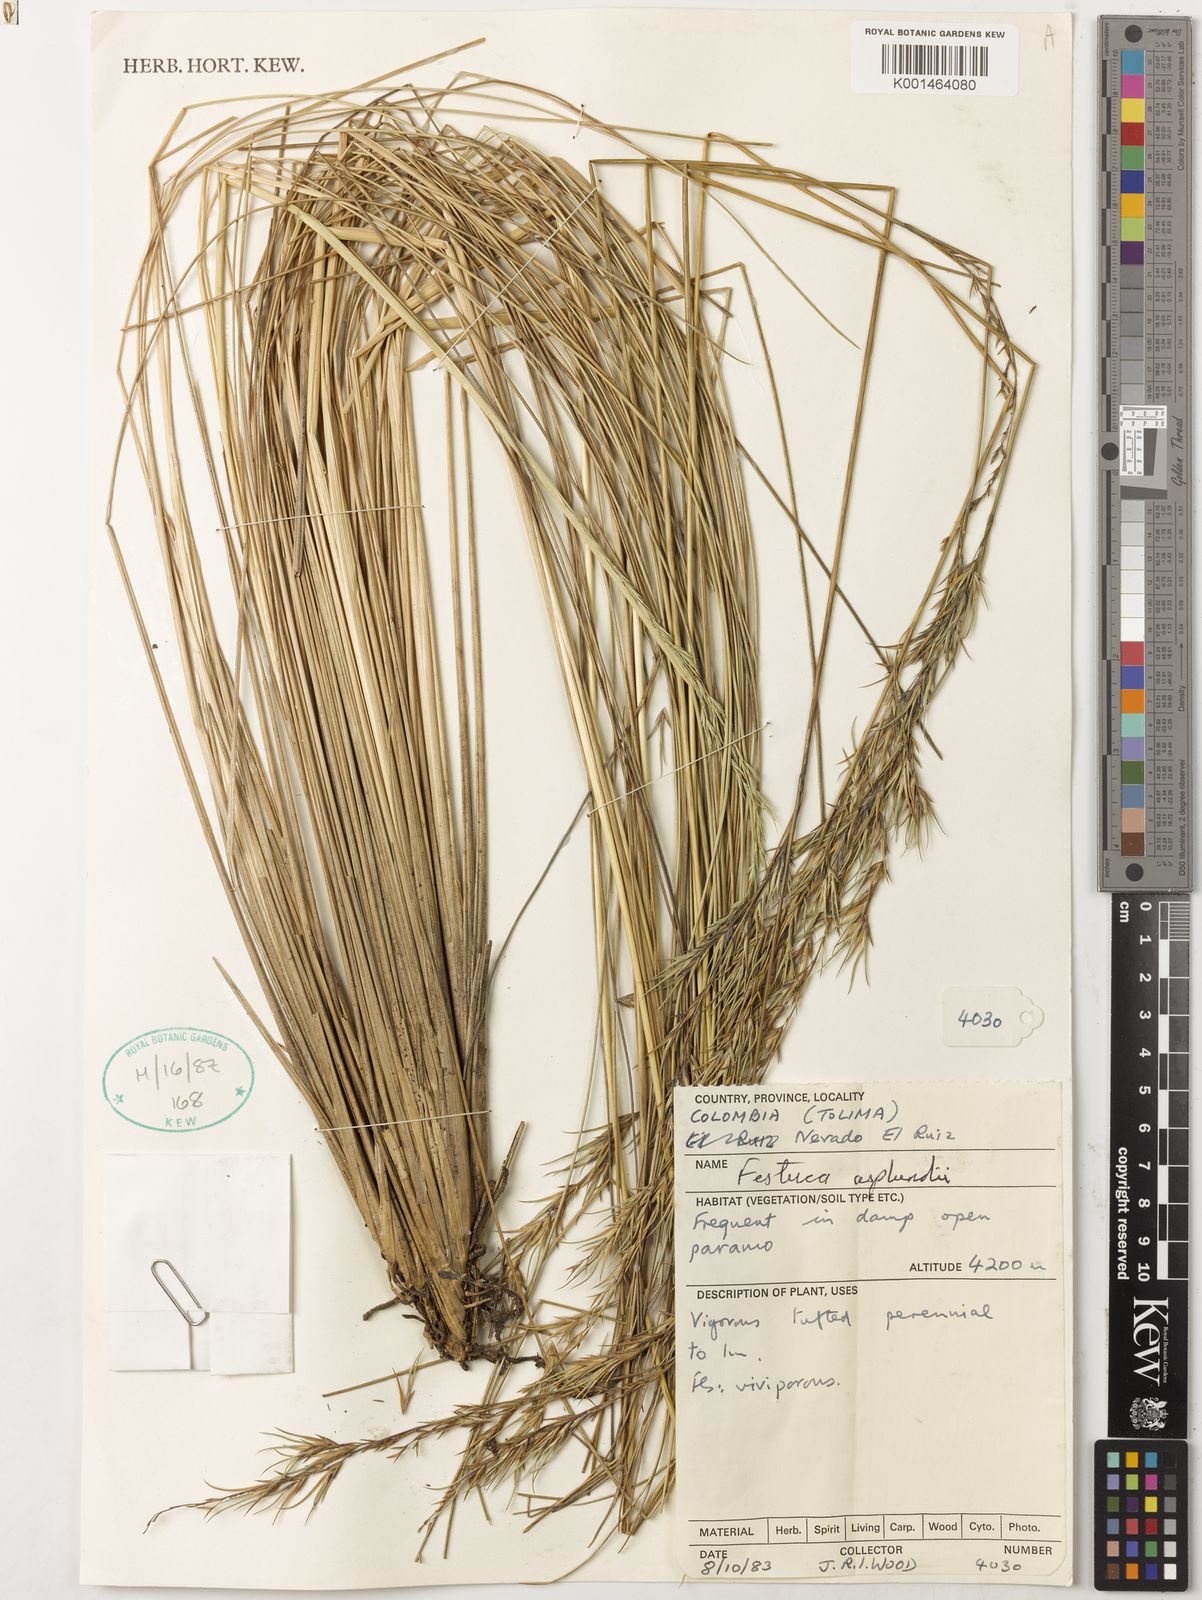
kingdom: Plantae
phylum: Tracheophyta
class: Liliopsida
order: Poales
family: Poaceae
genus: Festuca
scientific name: Festuca asplundii
